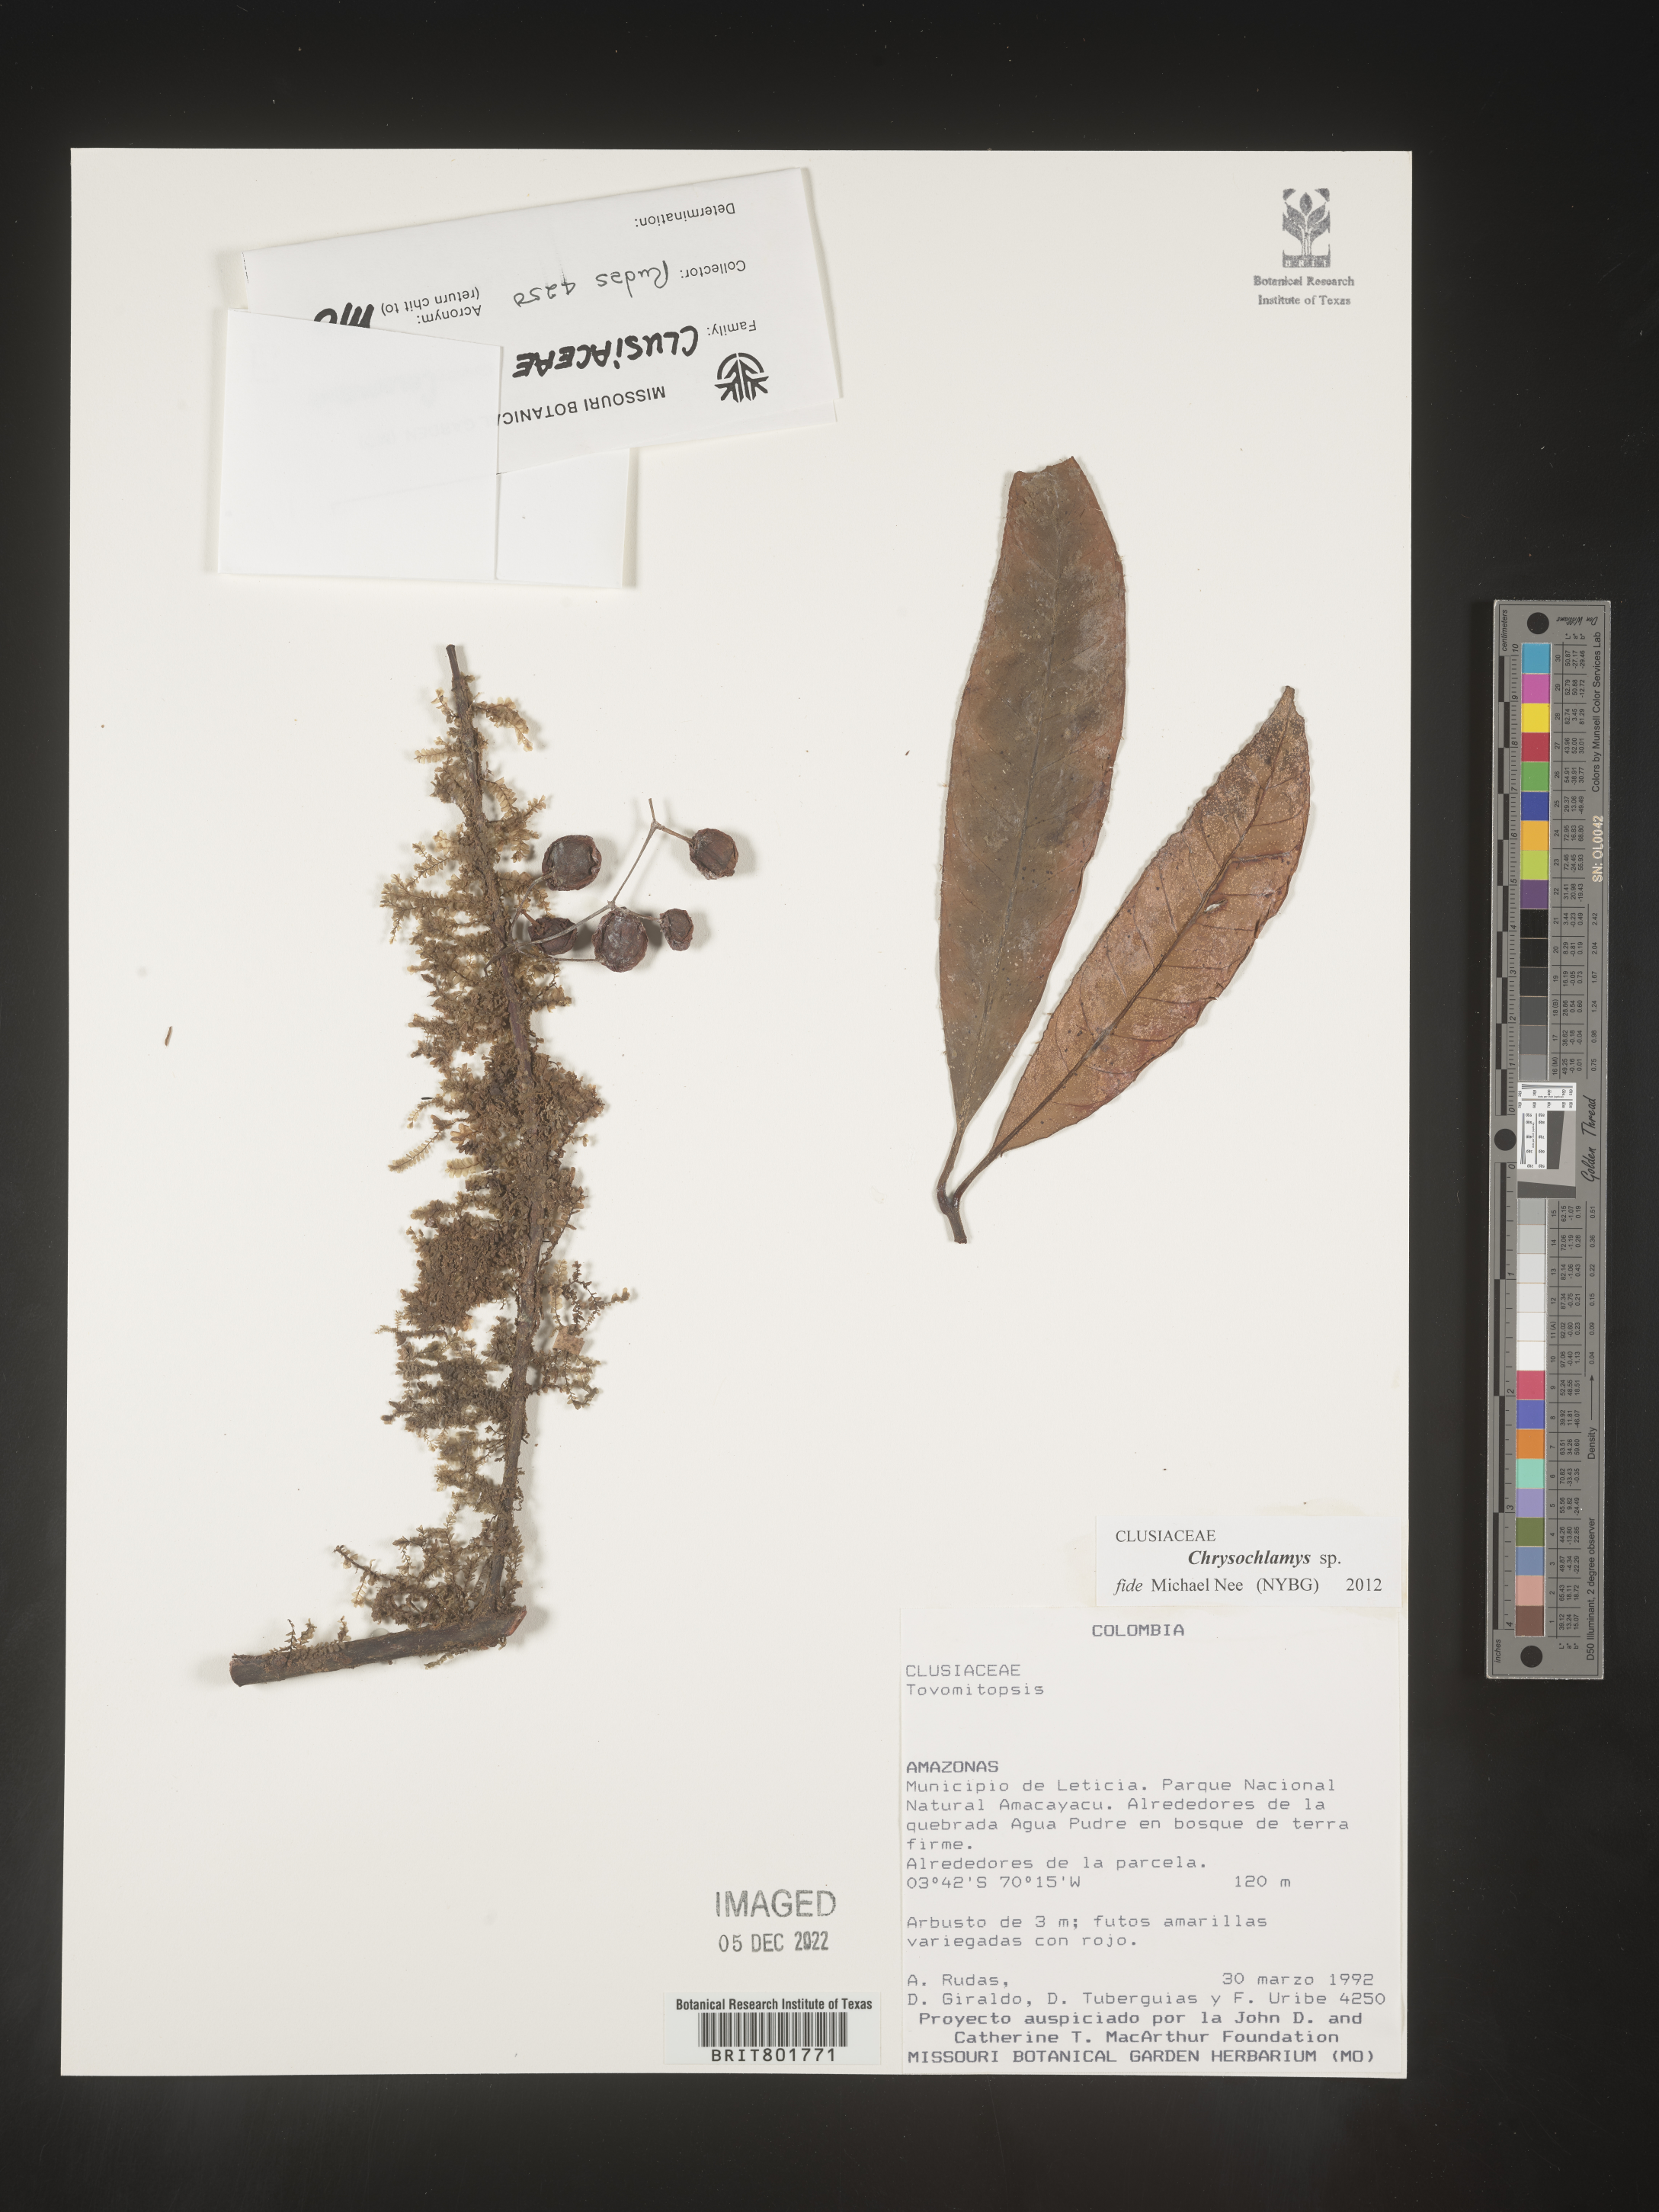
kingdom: Plantae
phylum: Tracheophyta
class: Magnoliopsida
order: Malpighiales
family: Clusiaceae
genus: Chrysochlamys
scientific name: Chrysochlamys
